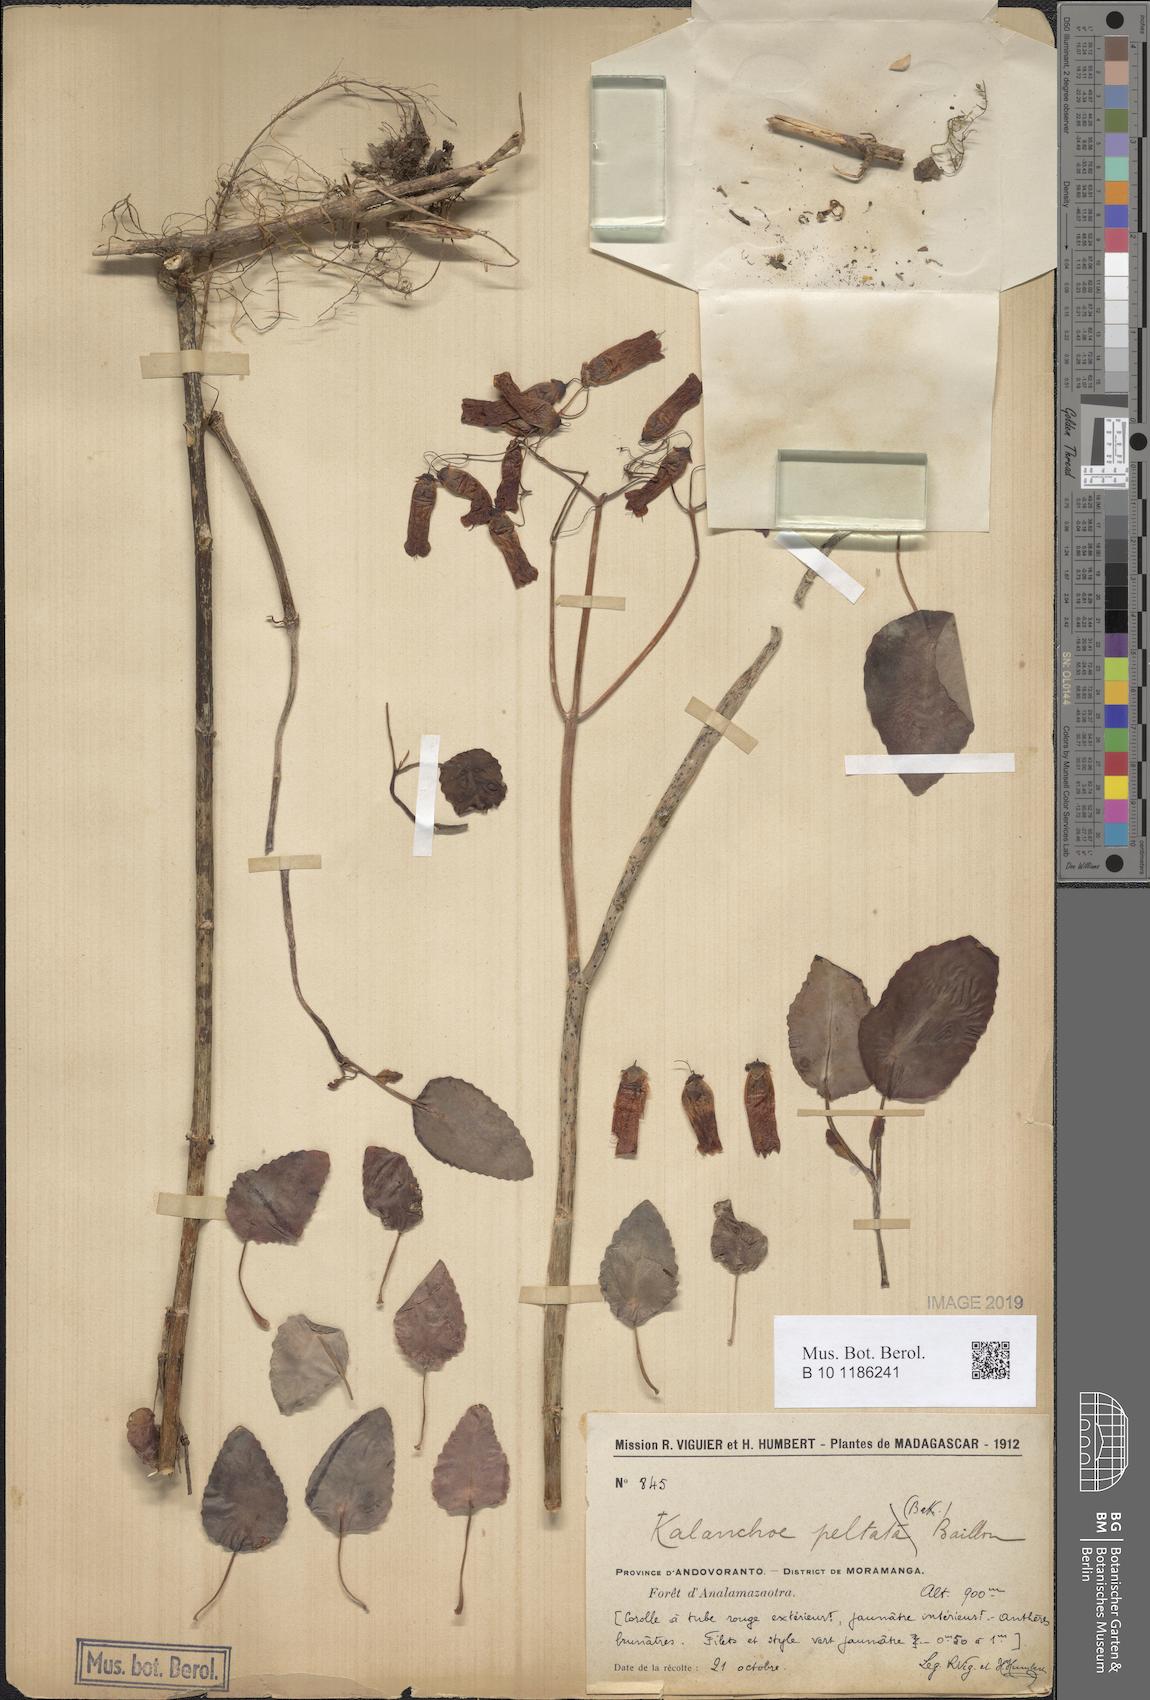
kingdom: Plantae
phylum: Tracheophyta
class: Magnoliopsida
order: Saxifragales
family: Crassulaceae
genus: Kalanchoe
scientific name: Kalanchoe peltata
